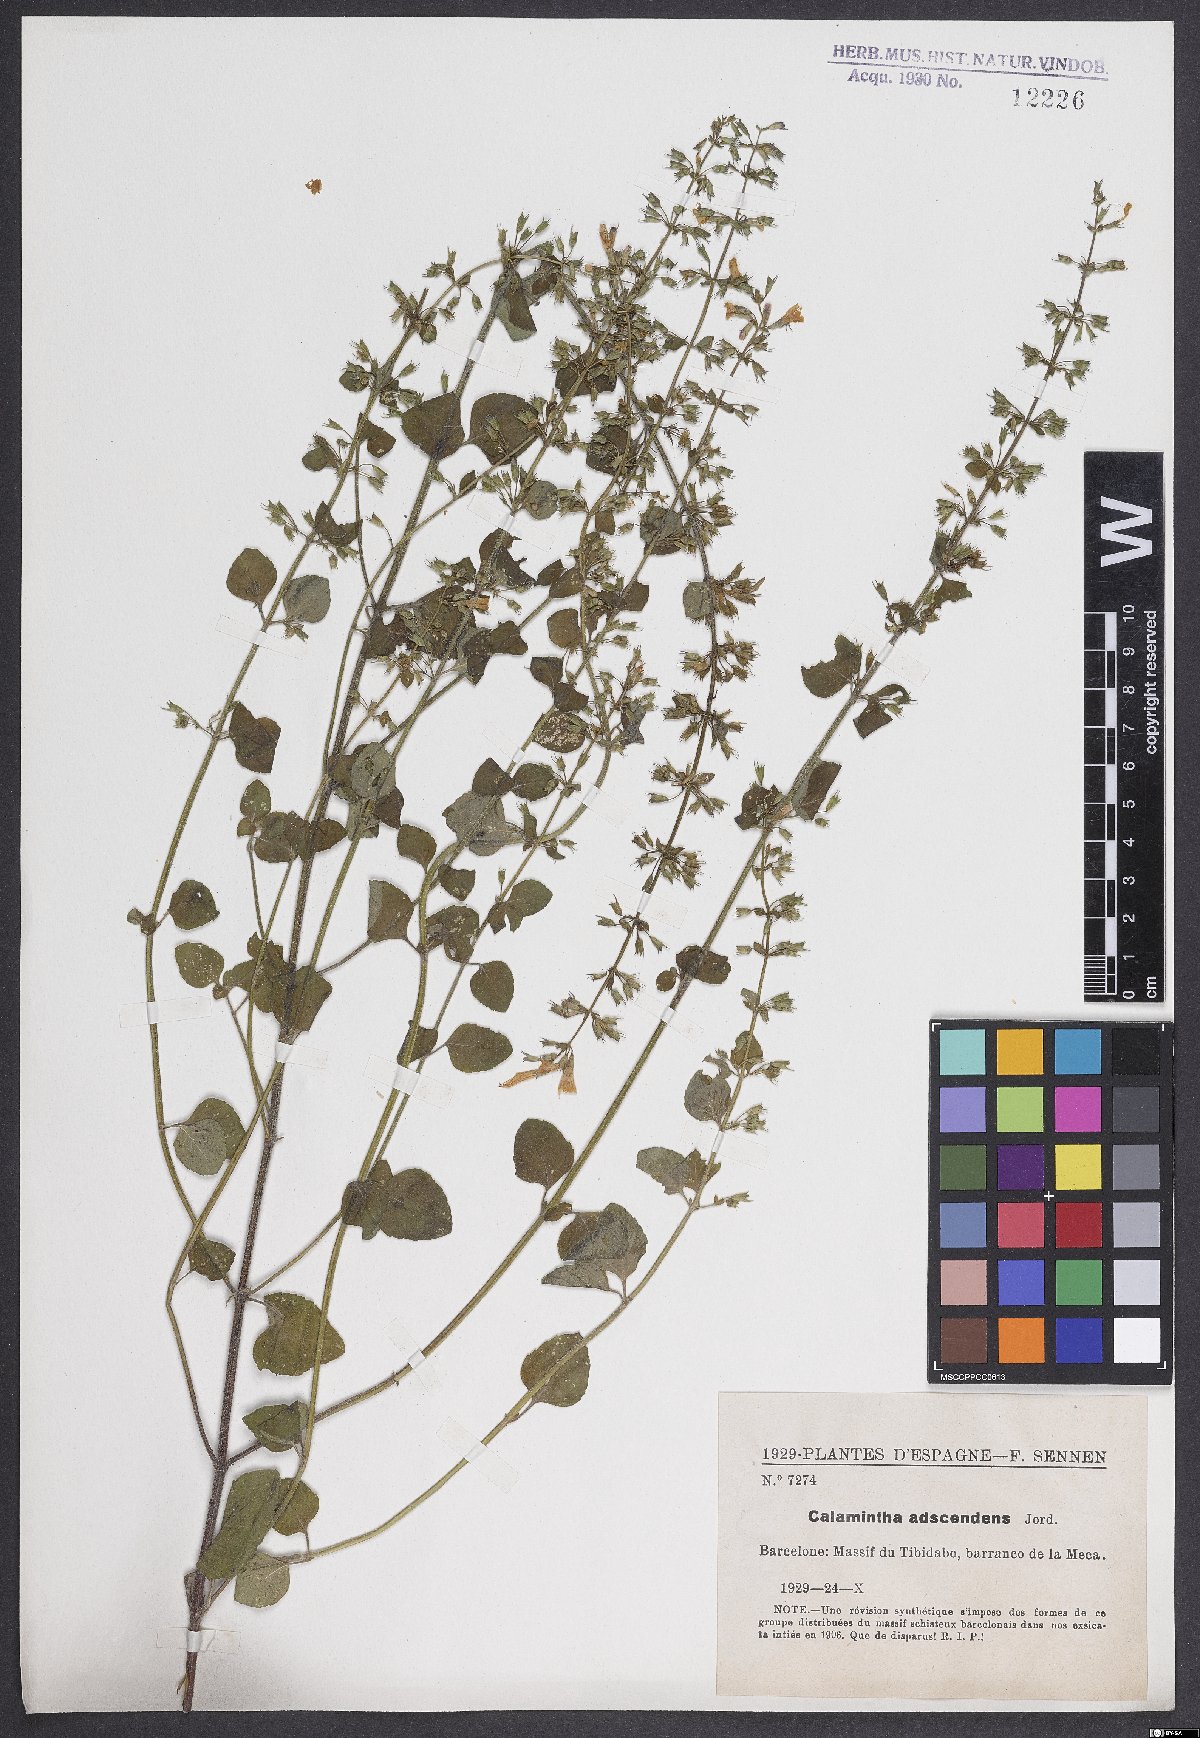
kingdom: Plantae
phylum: Tracheophyta
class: Magnoliopsida
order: Lamiales
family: Lamiaceae
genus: Clinopodium
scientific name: Clinopodium menthifolium
